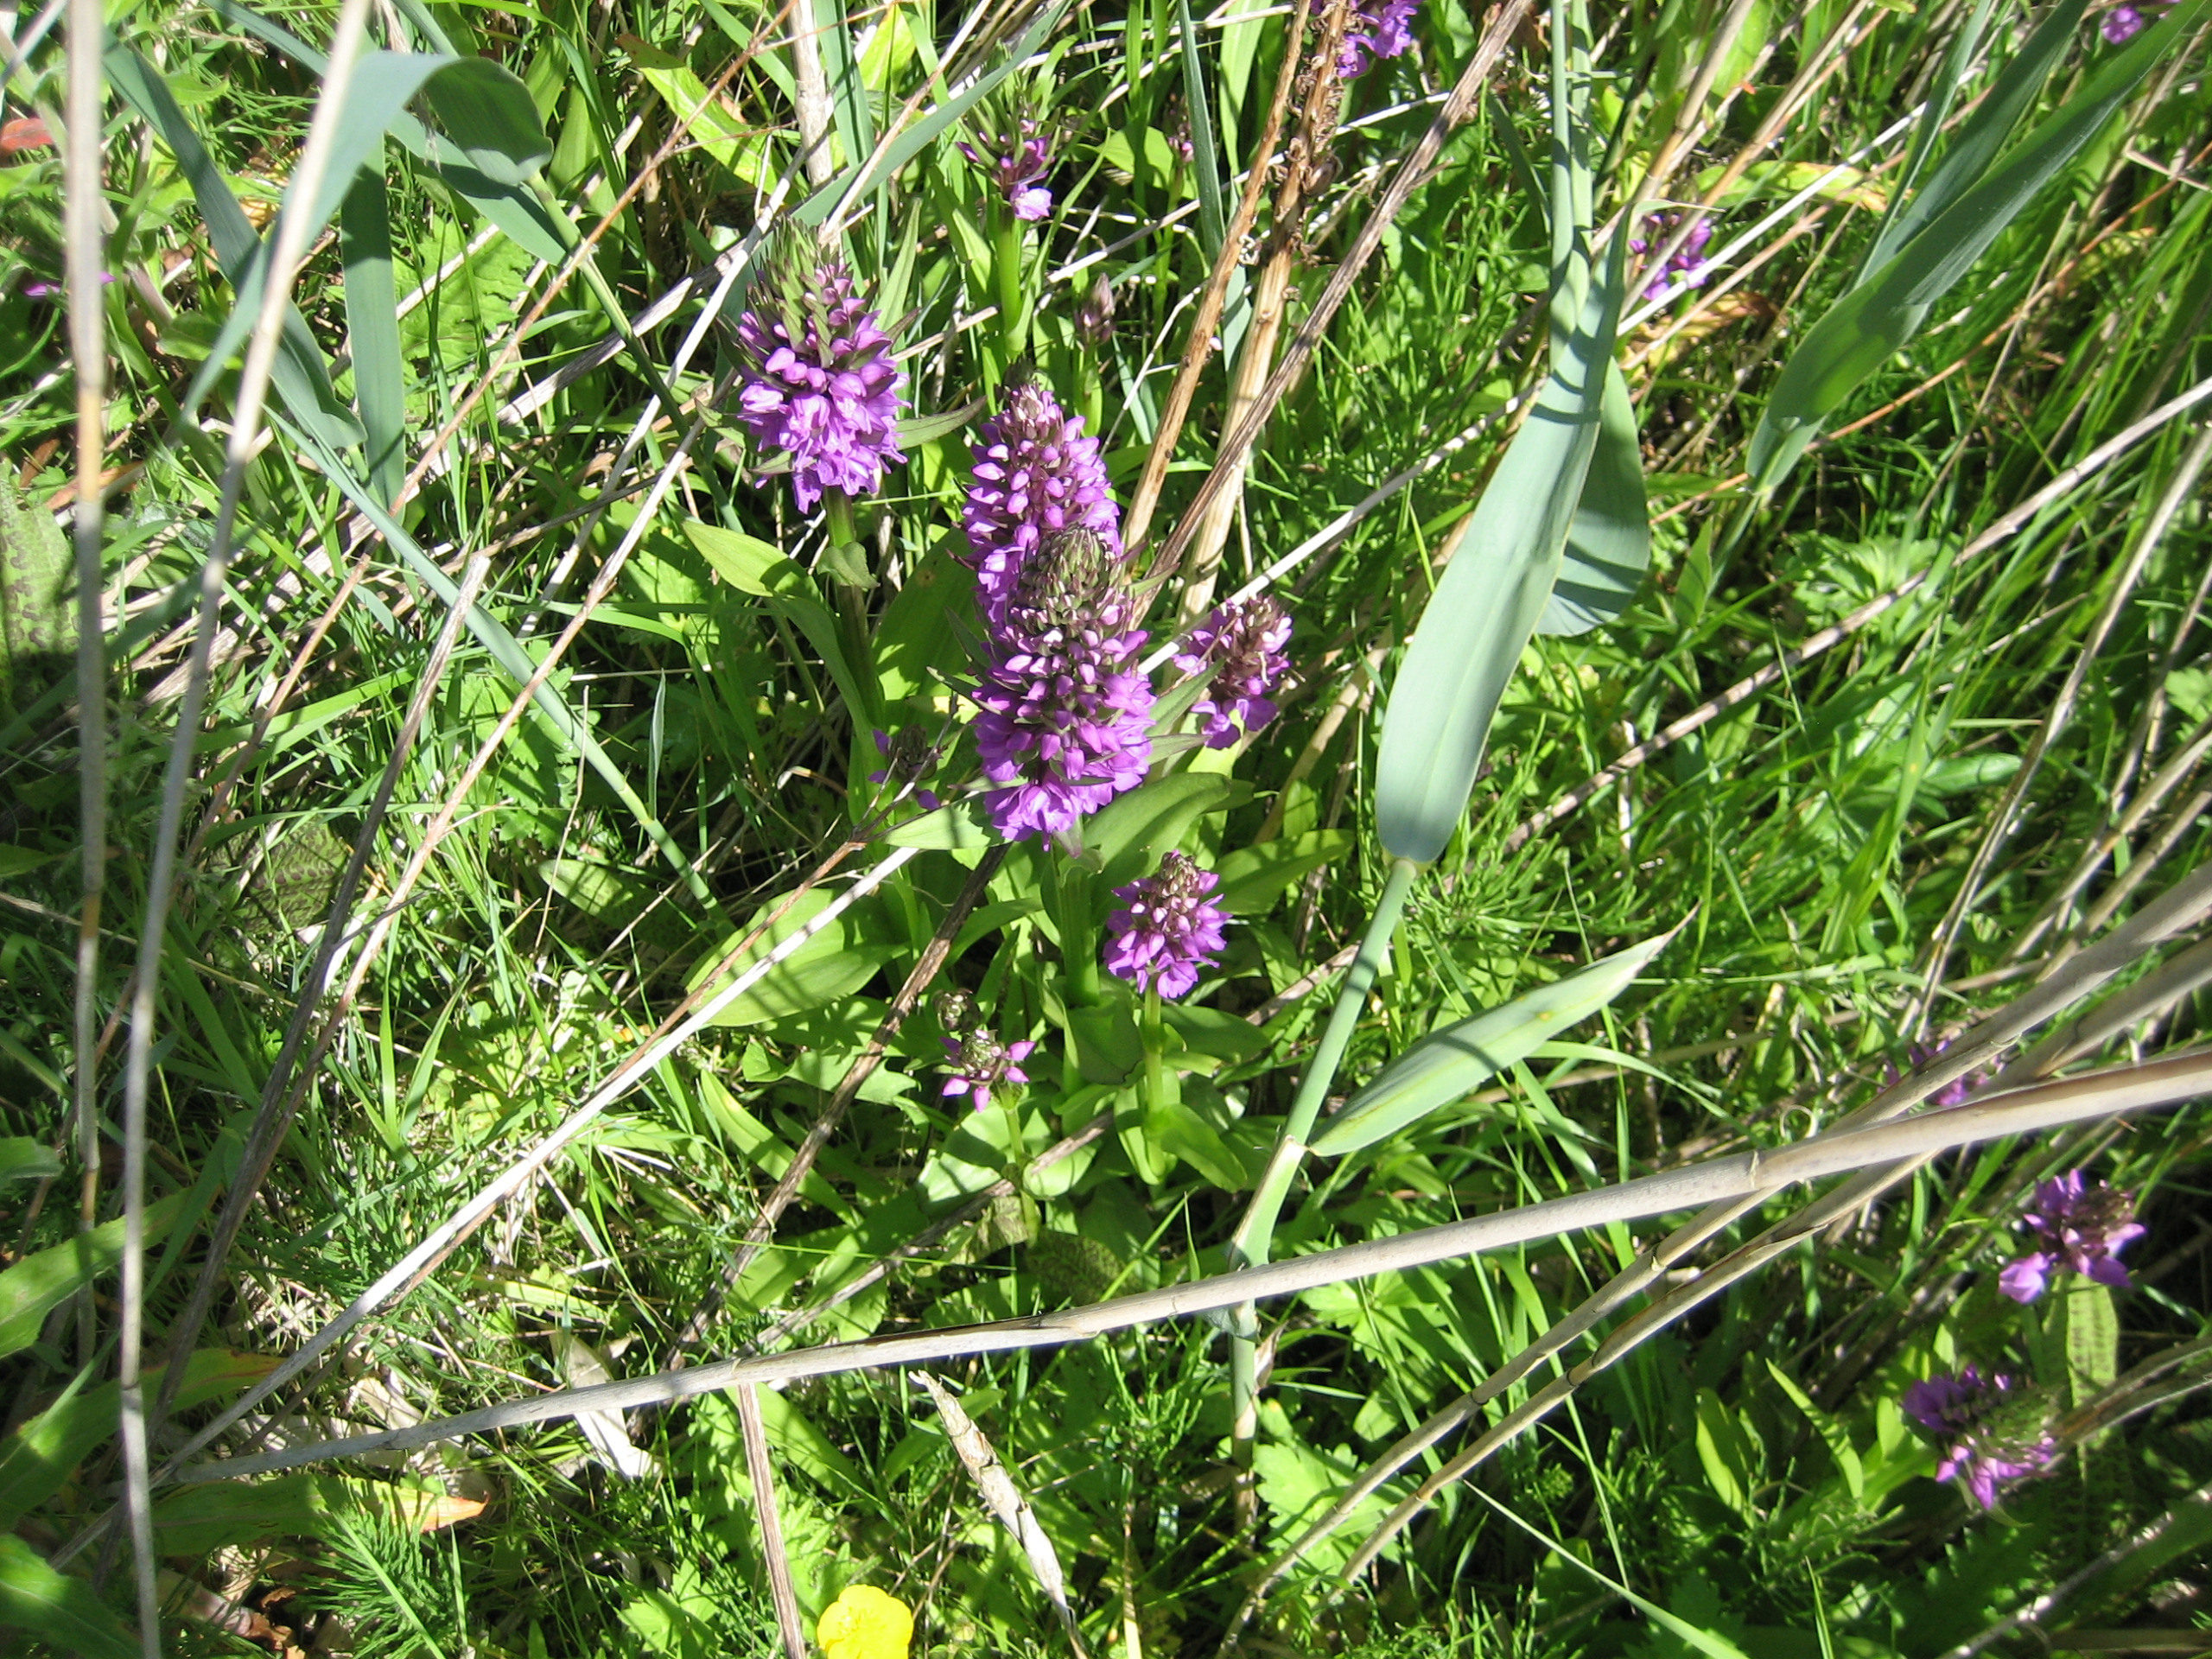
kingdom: Plantae
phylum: Tracheophyta
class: Liliopsida
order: Asparagales
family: Orchidaceae
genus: Dactylorhiza
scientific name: Dactylorhiza majalis
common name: Priklæbet gøgeurt
